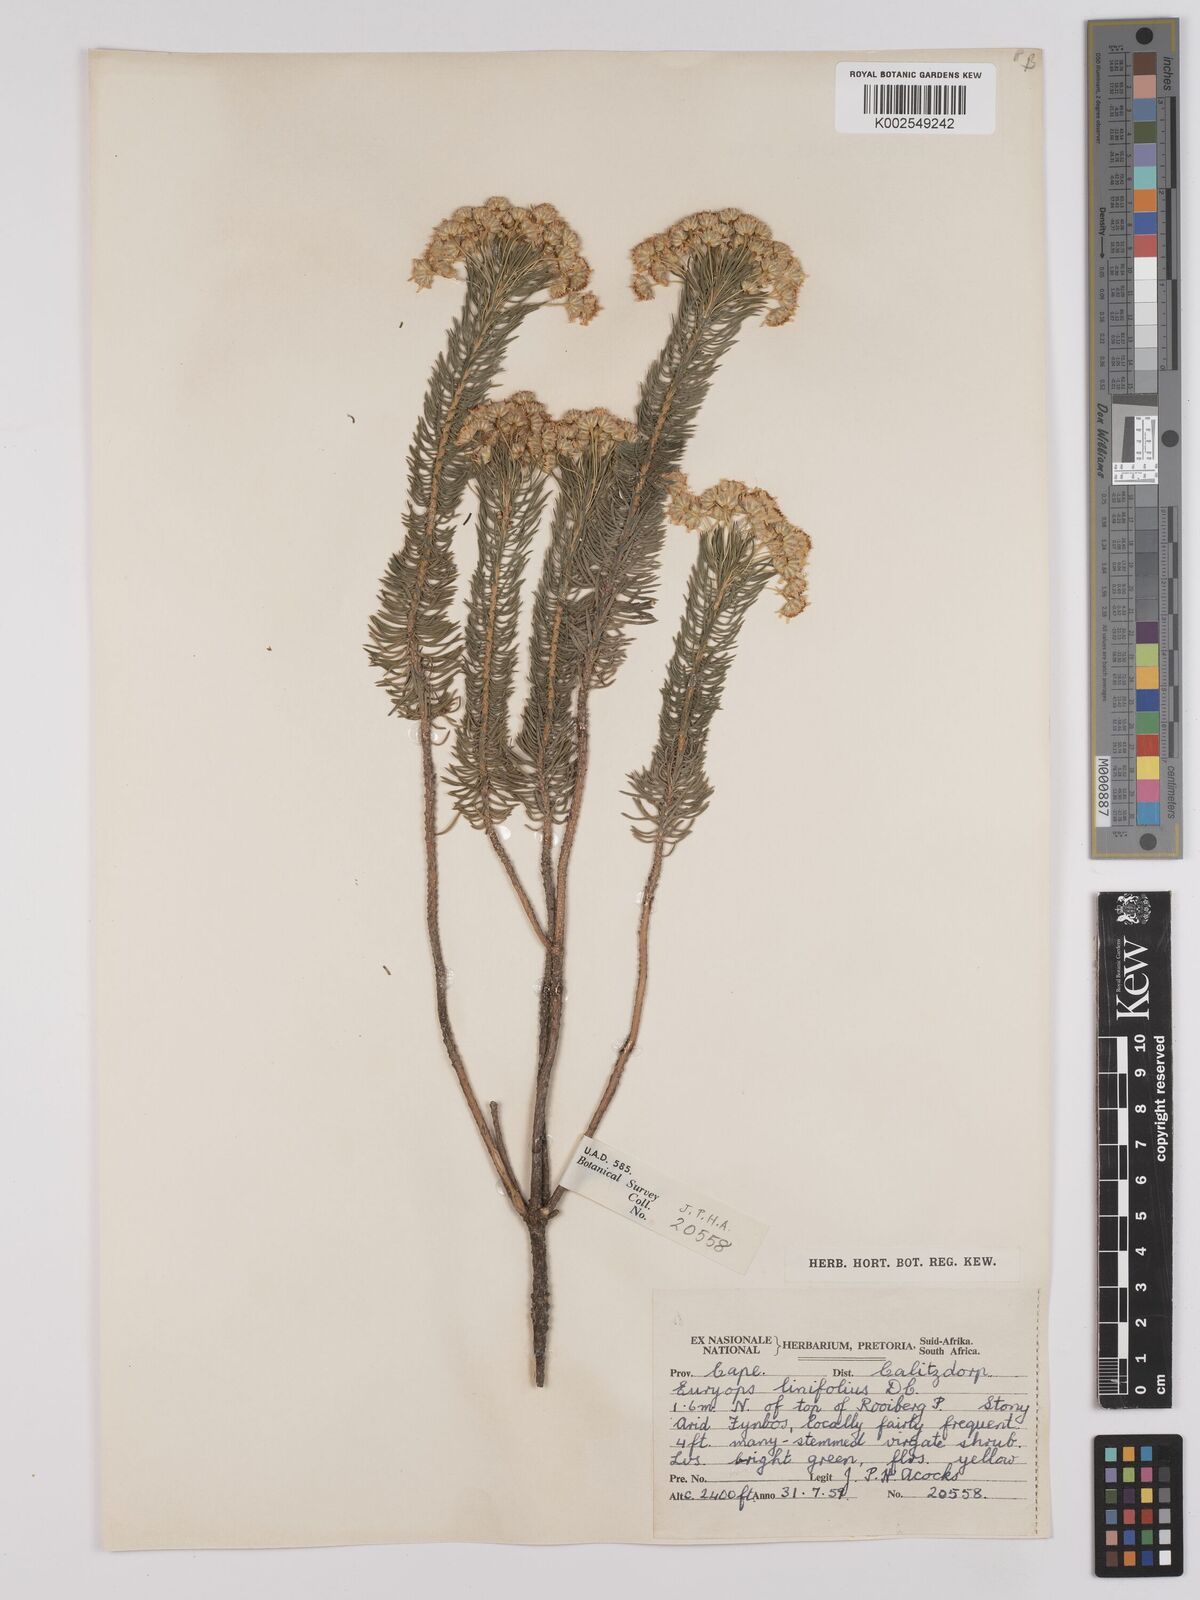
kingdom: Plantae
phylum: Tracheophyta
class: Magnoliopsida
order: Asterales
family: Asteraceae
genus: Euryops
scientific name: Euryops linifolius
